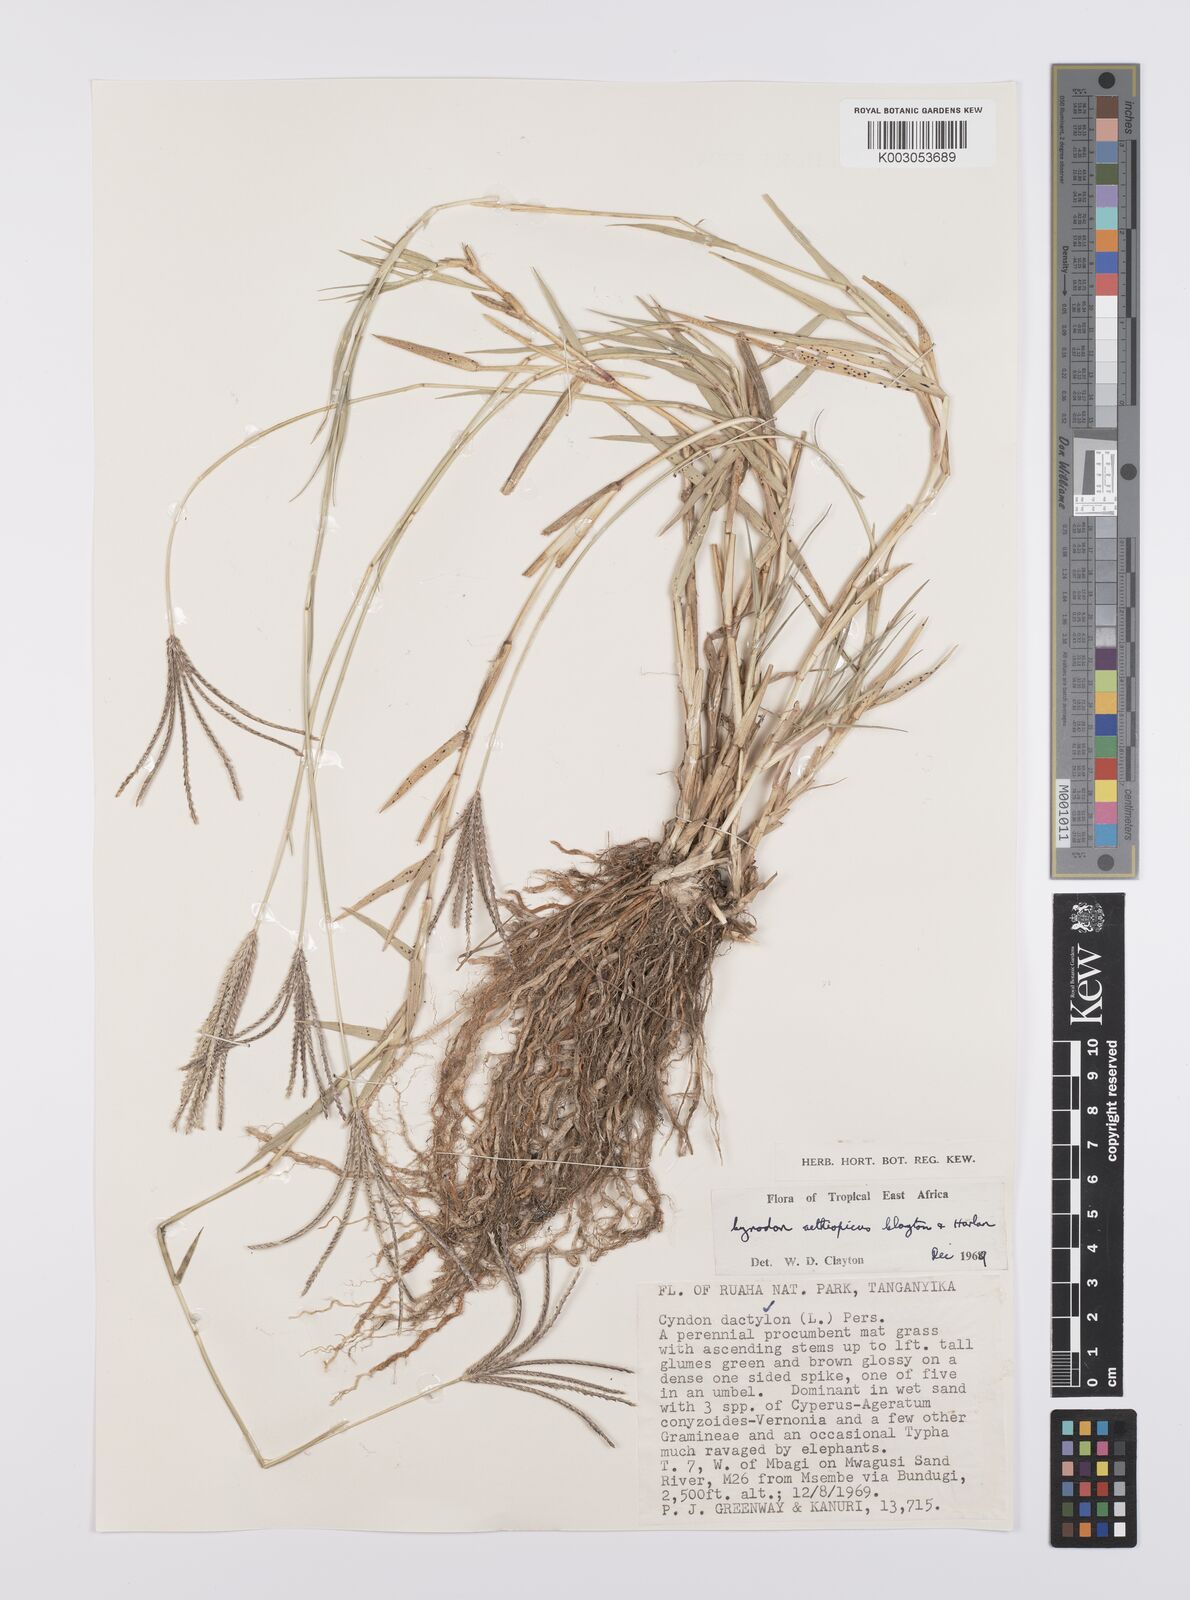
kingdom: Plantae
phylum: Tracheophyta
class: Liliopsida
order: Poales
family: Poaceae
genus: Cynodon
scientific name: Cynodon aethiopicus
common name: Ethiopian dogstooth grass
